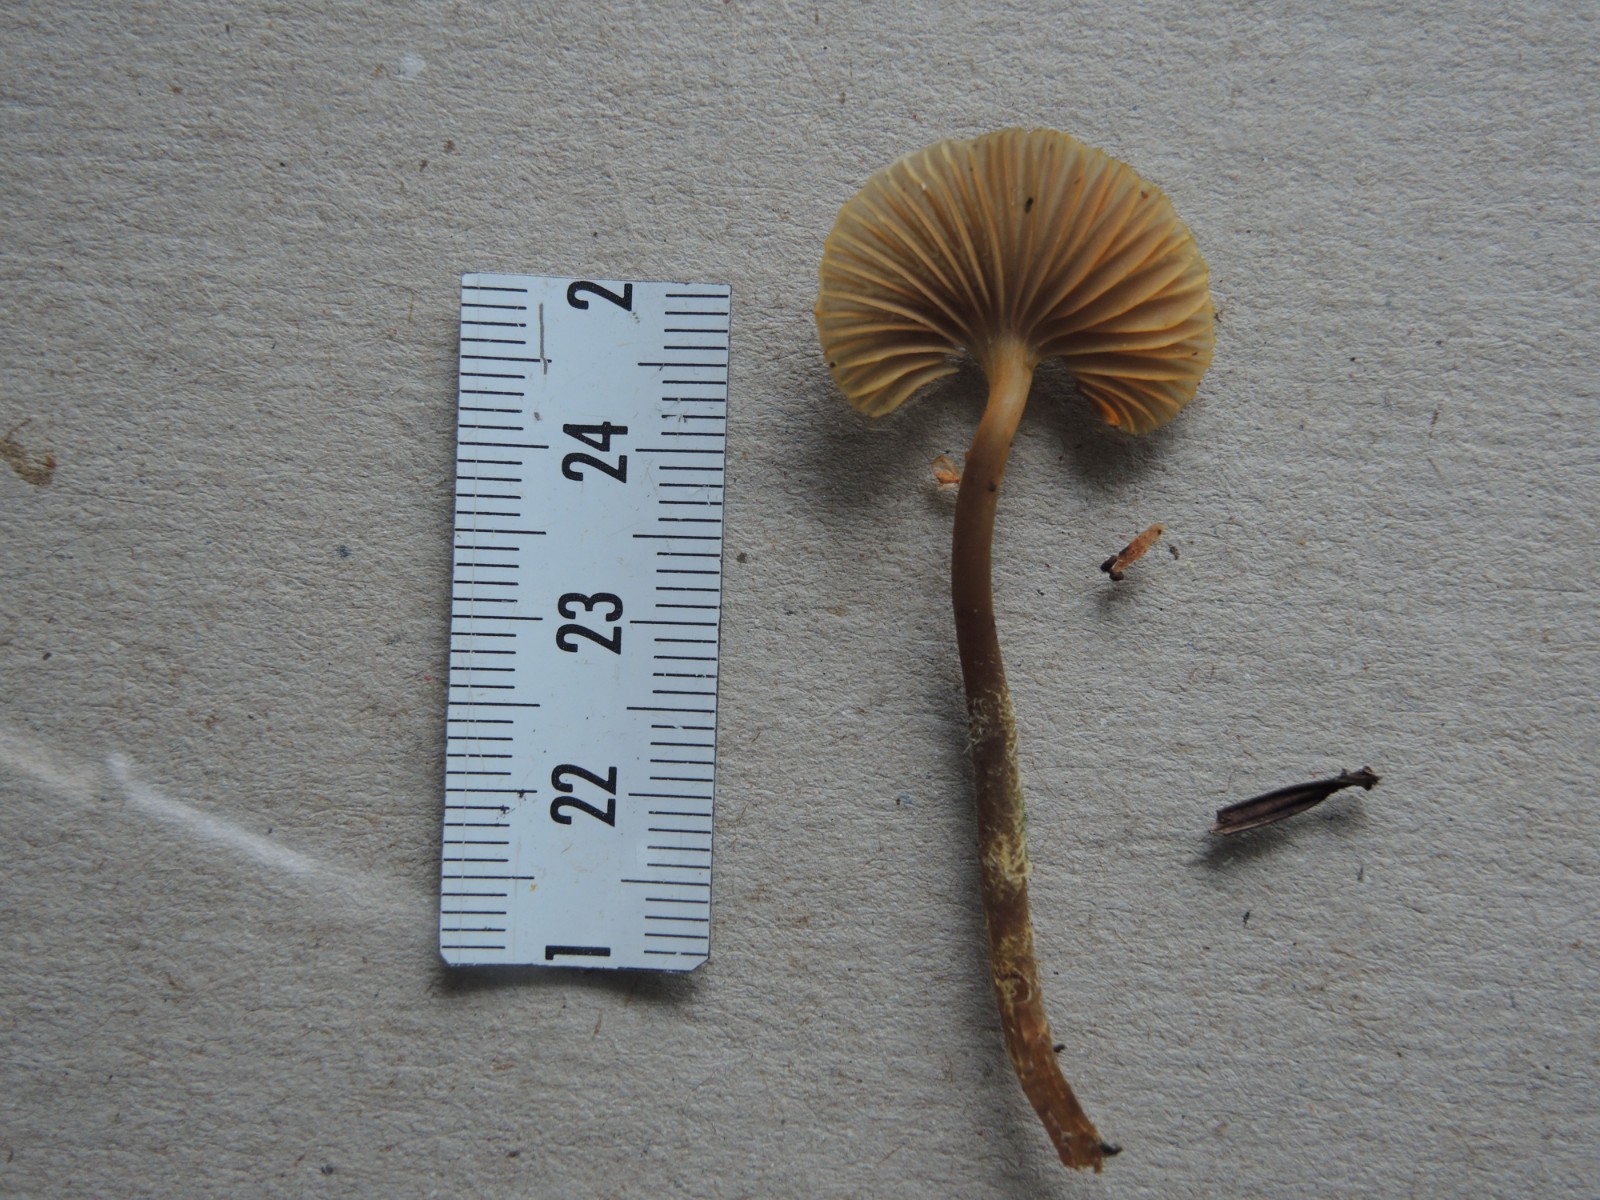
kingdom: Fungi
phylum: Basidiomycota
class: Agaricomycetes
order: Agaricales
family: Mycenaceae
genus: Mycena
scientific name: Mycena aurantiomarginata
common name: orangeægget huesvamp
